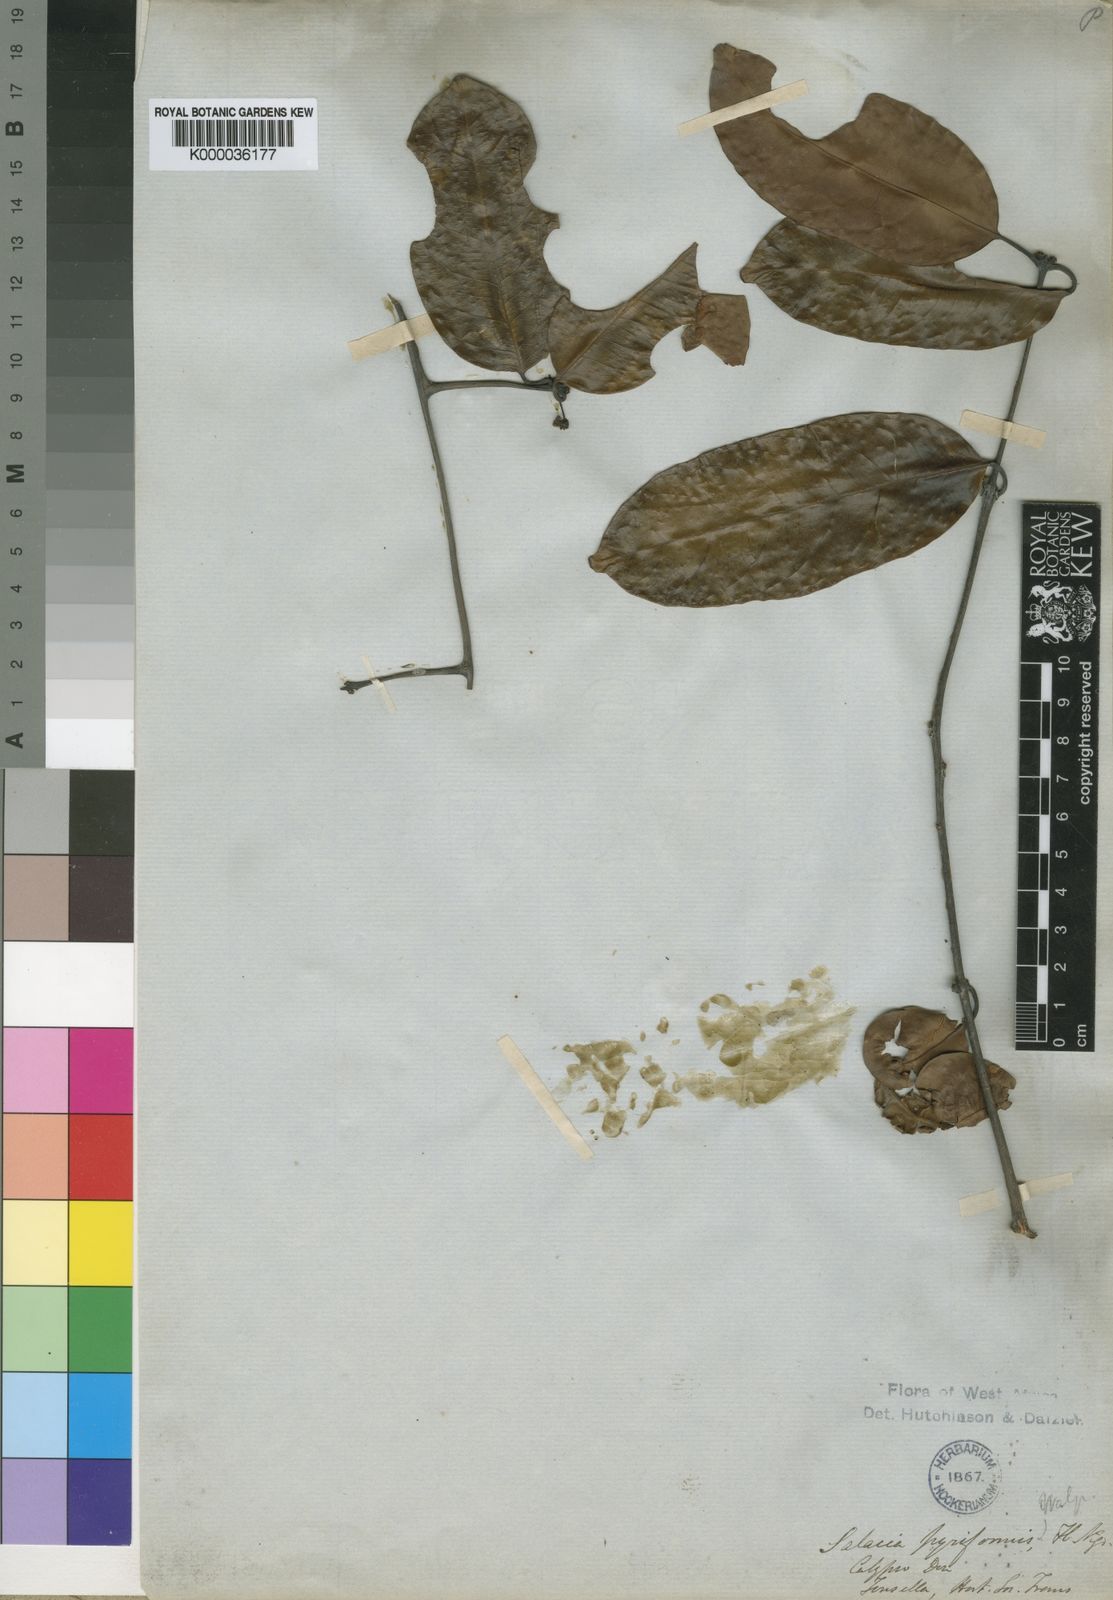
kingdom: Plantae
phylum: Tracheophyta
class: Magnoliopsida
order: Celastrales
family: Celastraceae
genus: Salacia
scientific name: Salacia pyriformis
